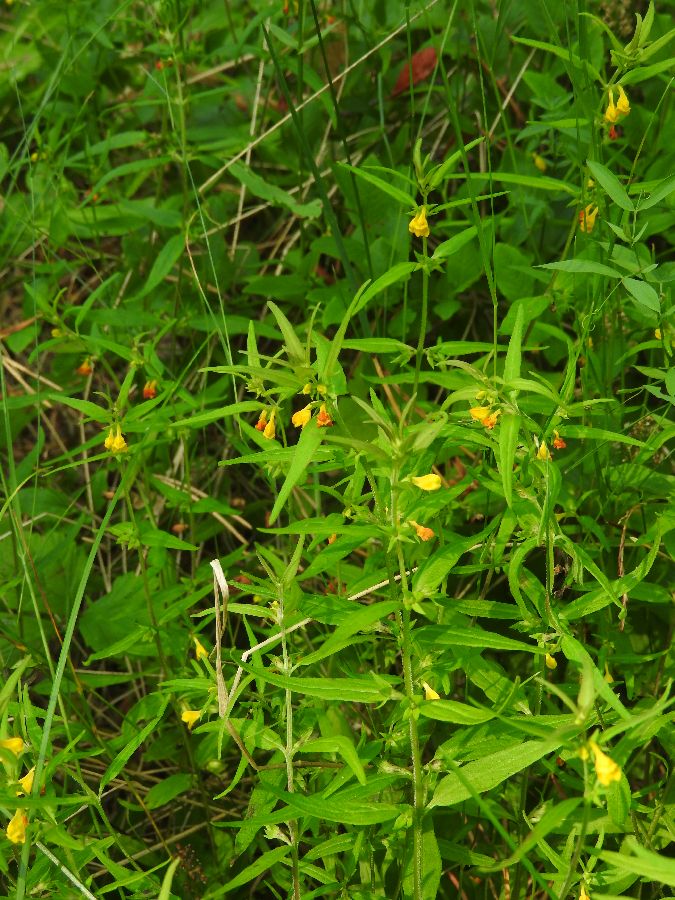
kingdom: Plantae
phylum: Tracheophyta
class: Magnoliopsida
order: Lamiales
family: Orobanchaceae
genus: Melampyrum
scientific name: Melampyrum sylvaticum
